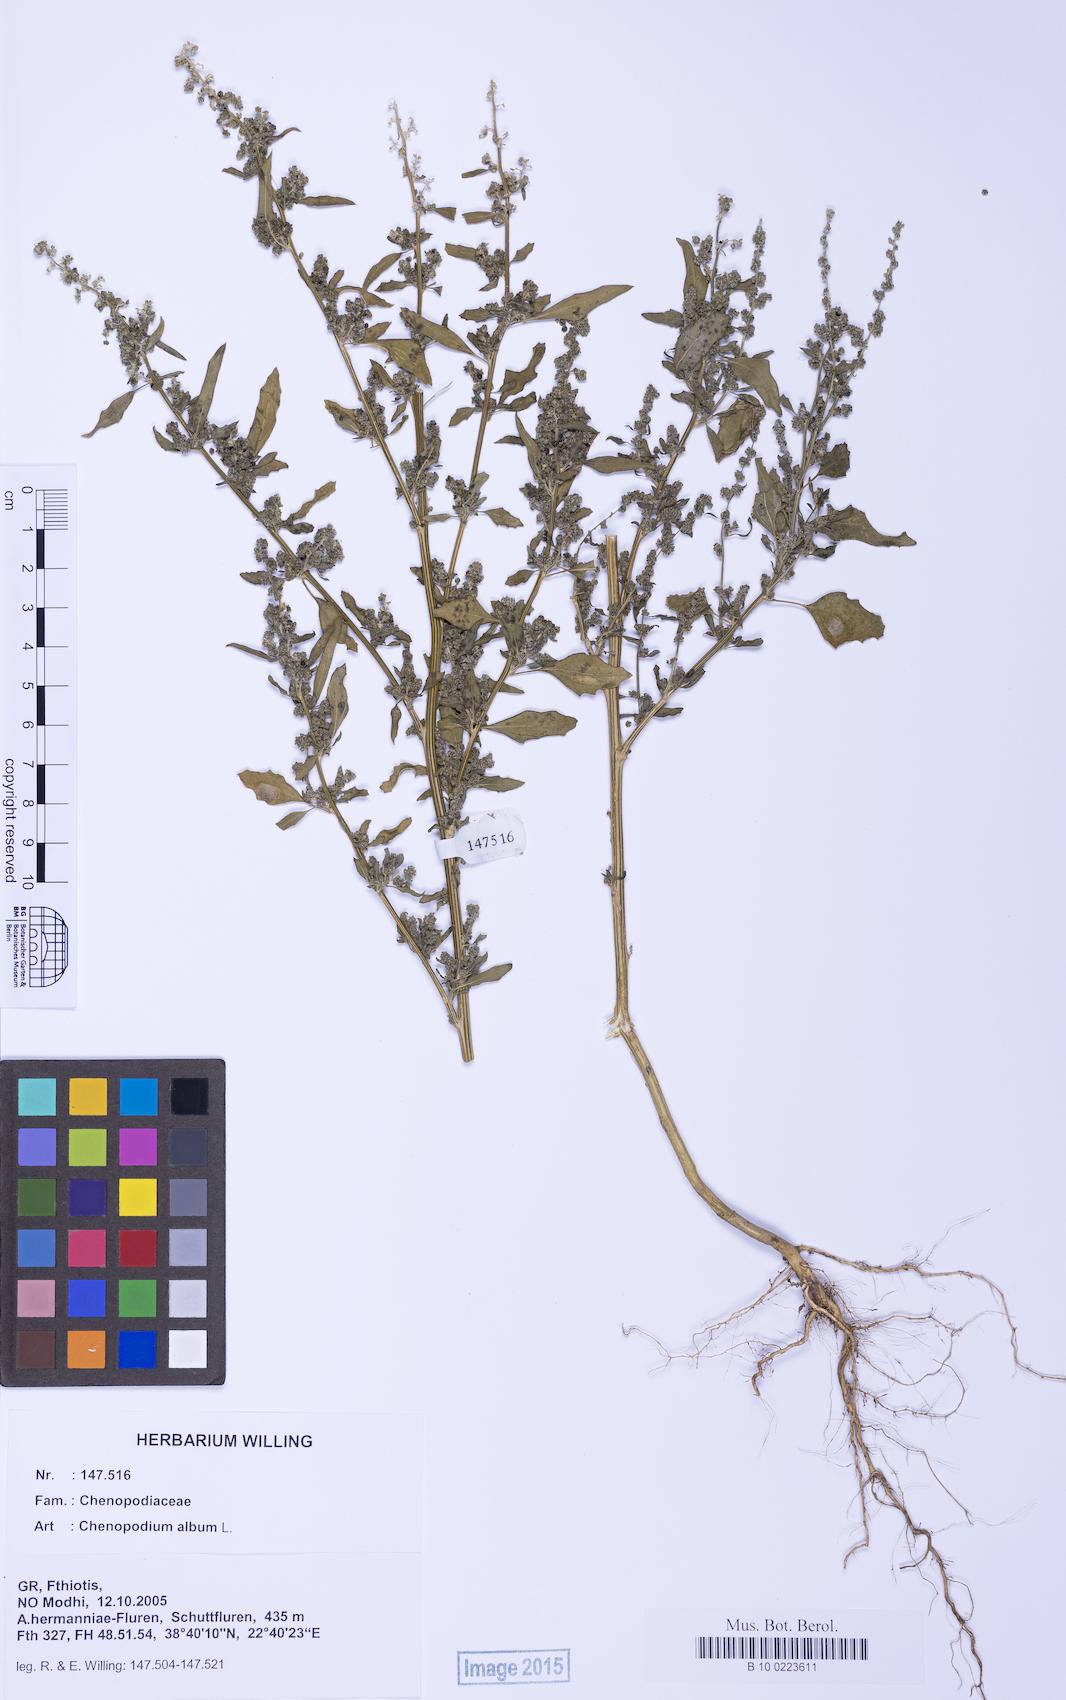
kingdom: Plantae
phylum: Tracheophyta
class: Magnoliopsida
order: Caryophyllales
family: Amaranthaceae
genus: Chenopodium
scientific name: Chenopodium album
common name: Fat-hen
